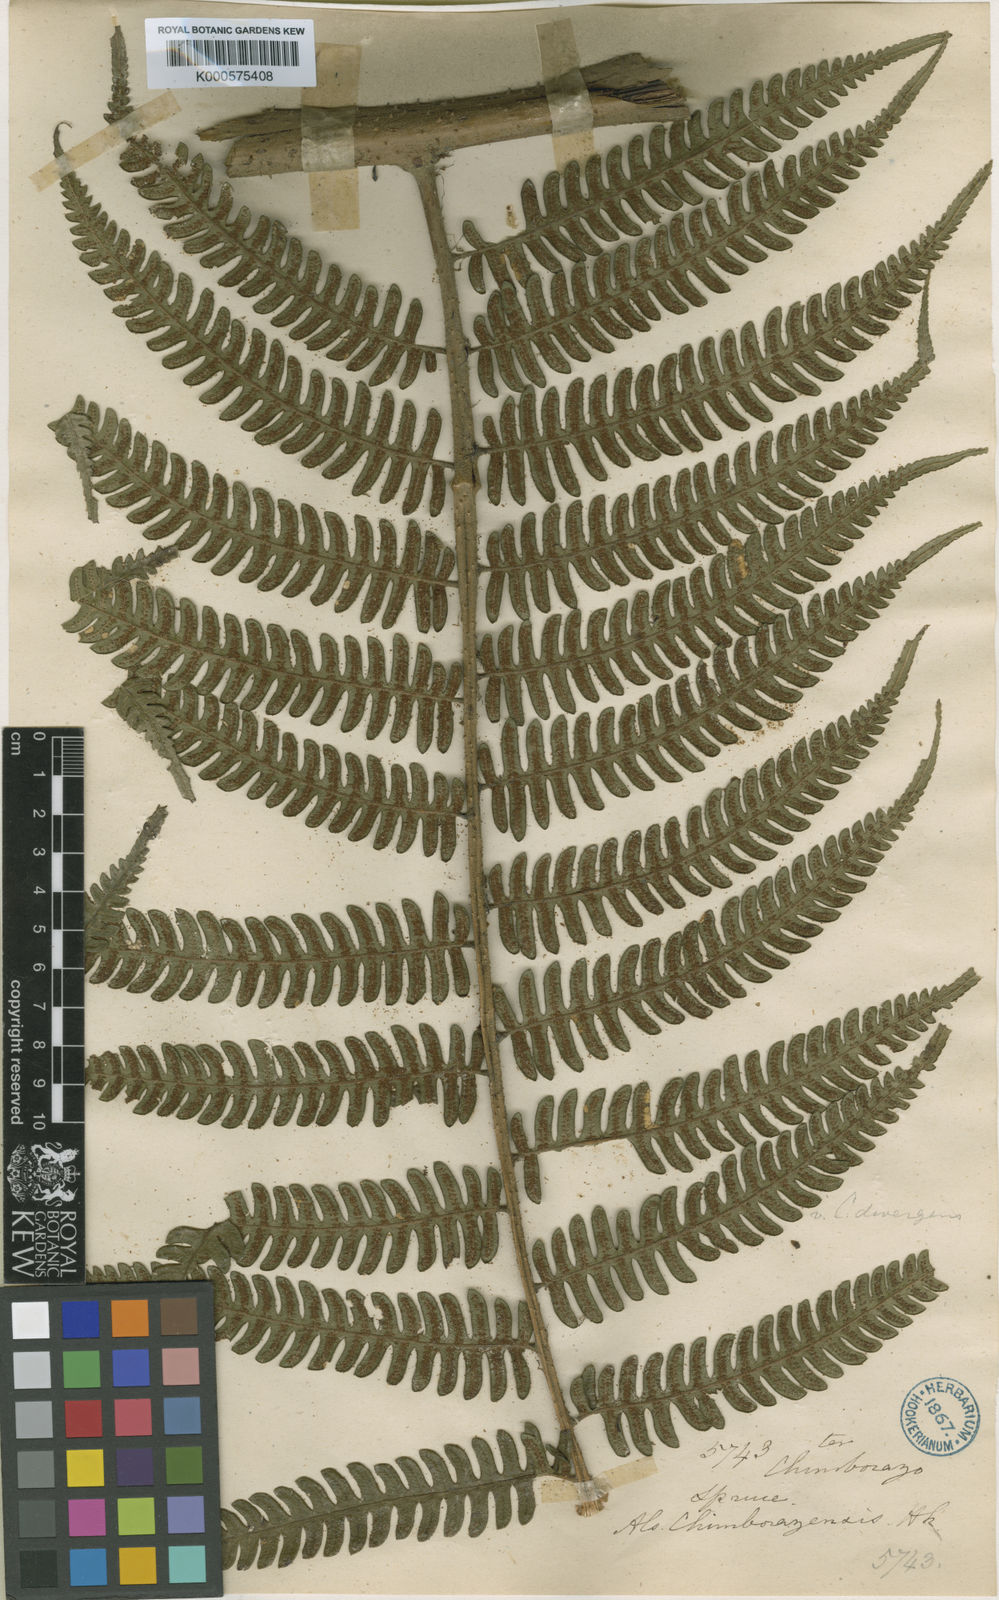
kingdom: Plantae
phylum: Tracheophyta
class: Polypodiopsida
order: Cyatheales
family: Cyatheaceae
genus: Cyathea
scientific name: Cyathea chimborazensis
